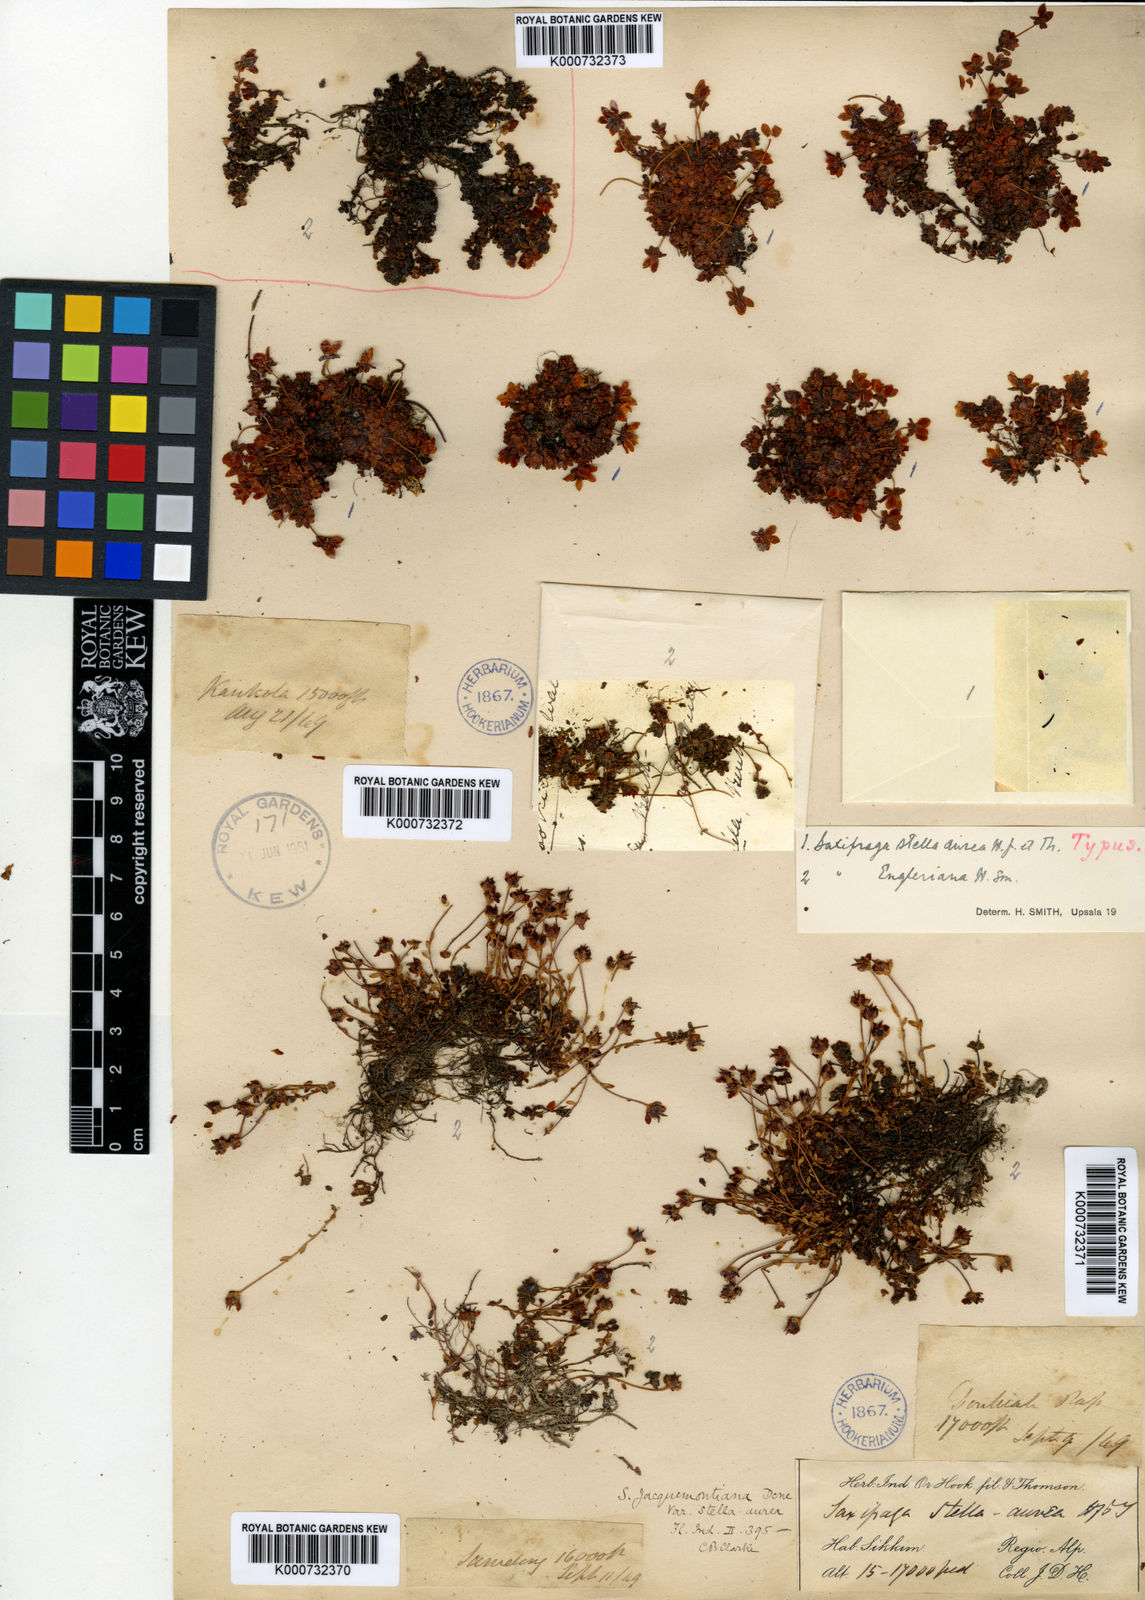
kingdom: Plantae
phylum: Tracheophyta
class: Magnoliopsida
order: Saxifragales
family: Saxifragaceae
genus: Saxifraga
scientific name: Saxifraga
